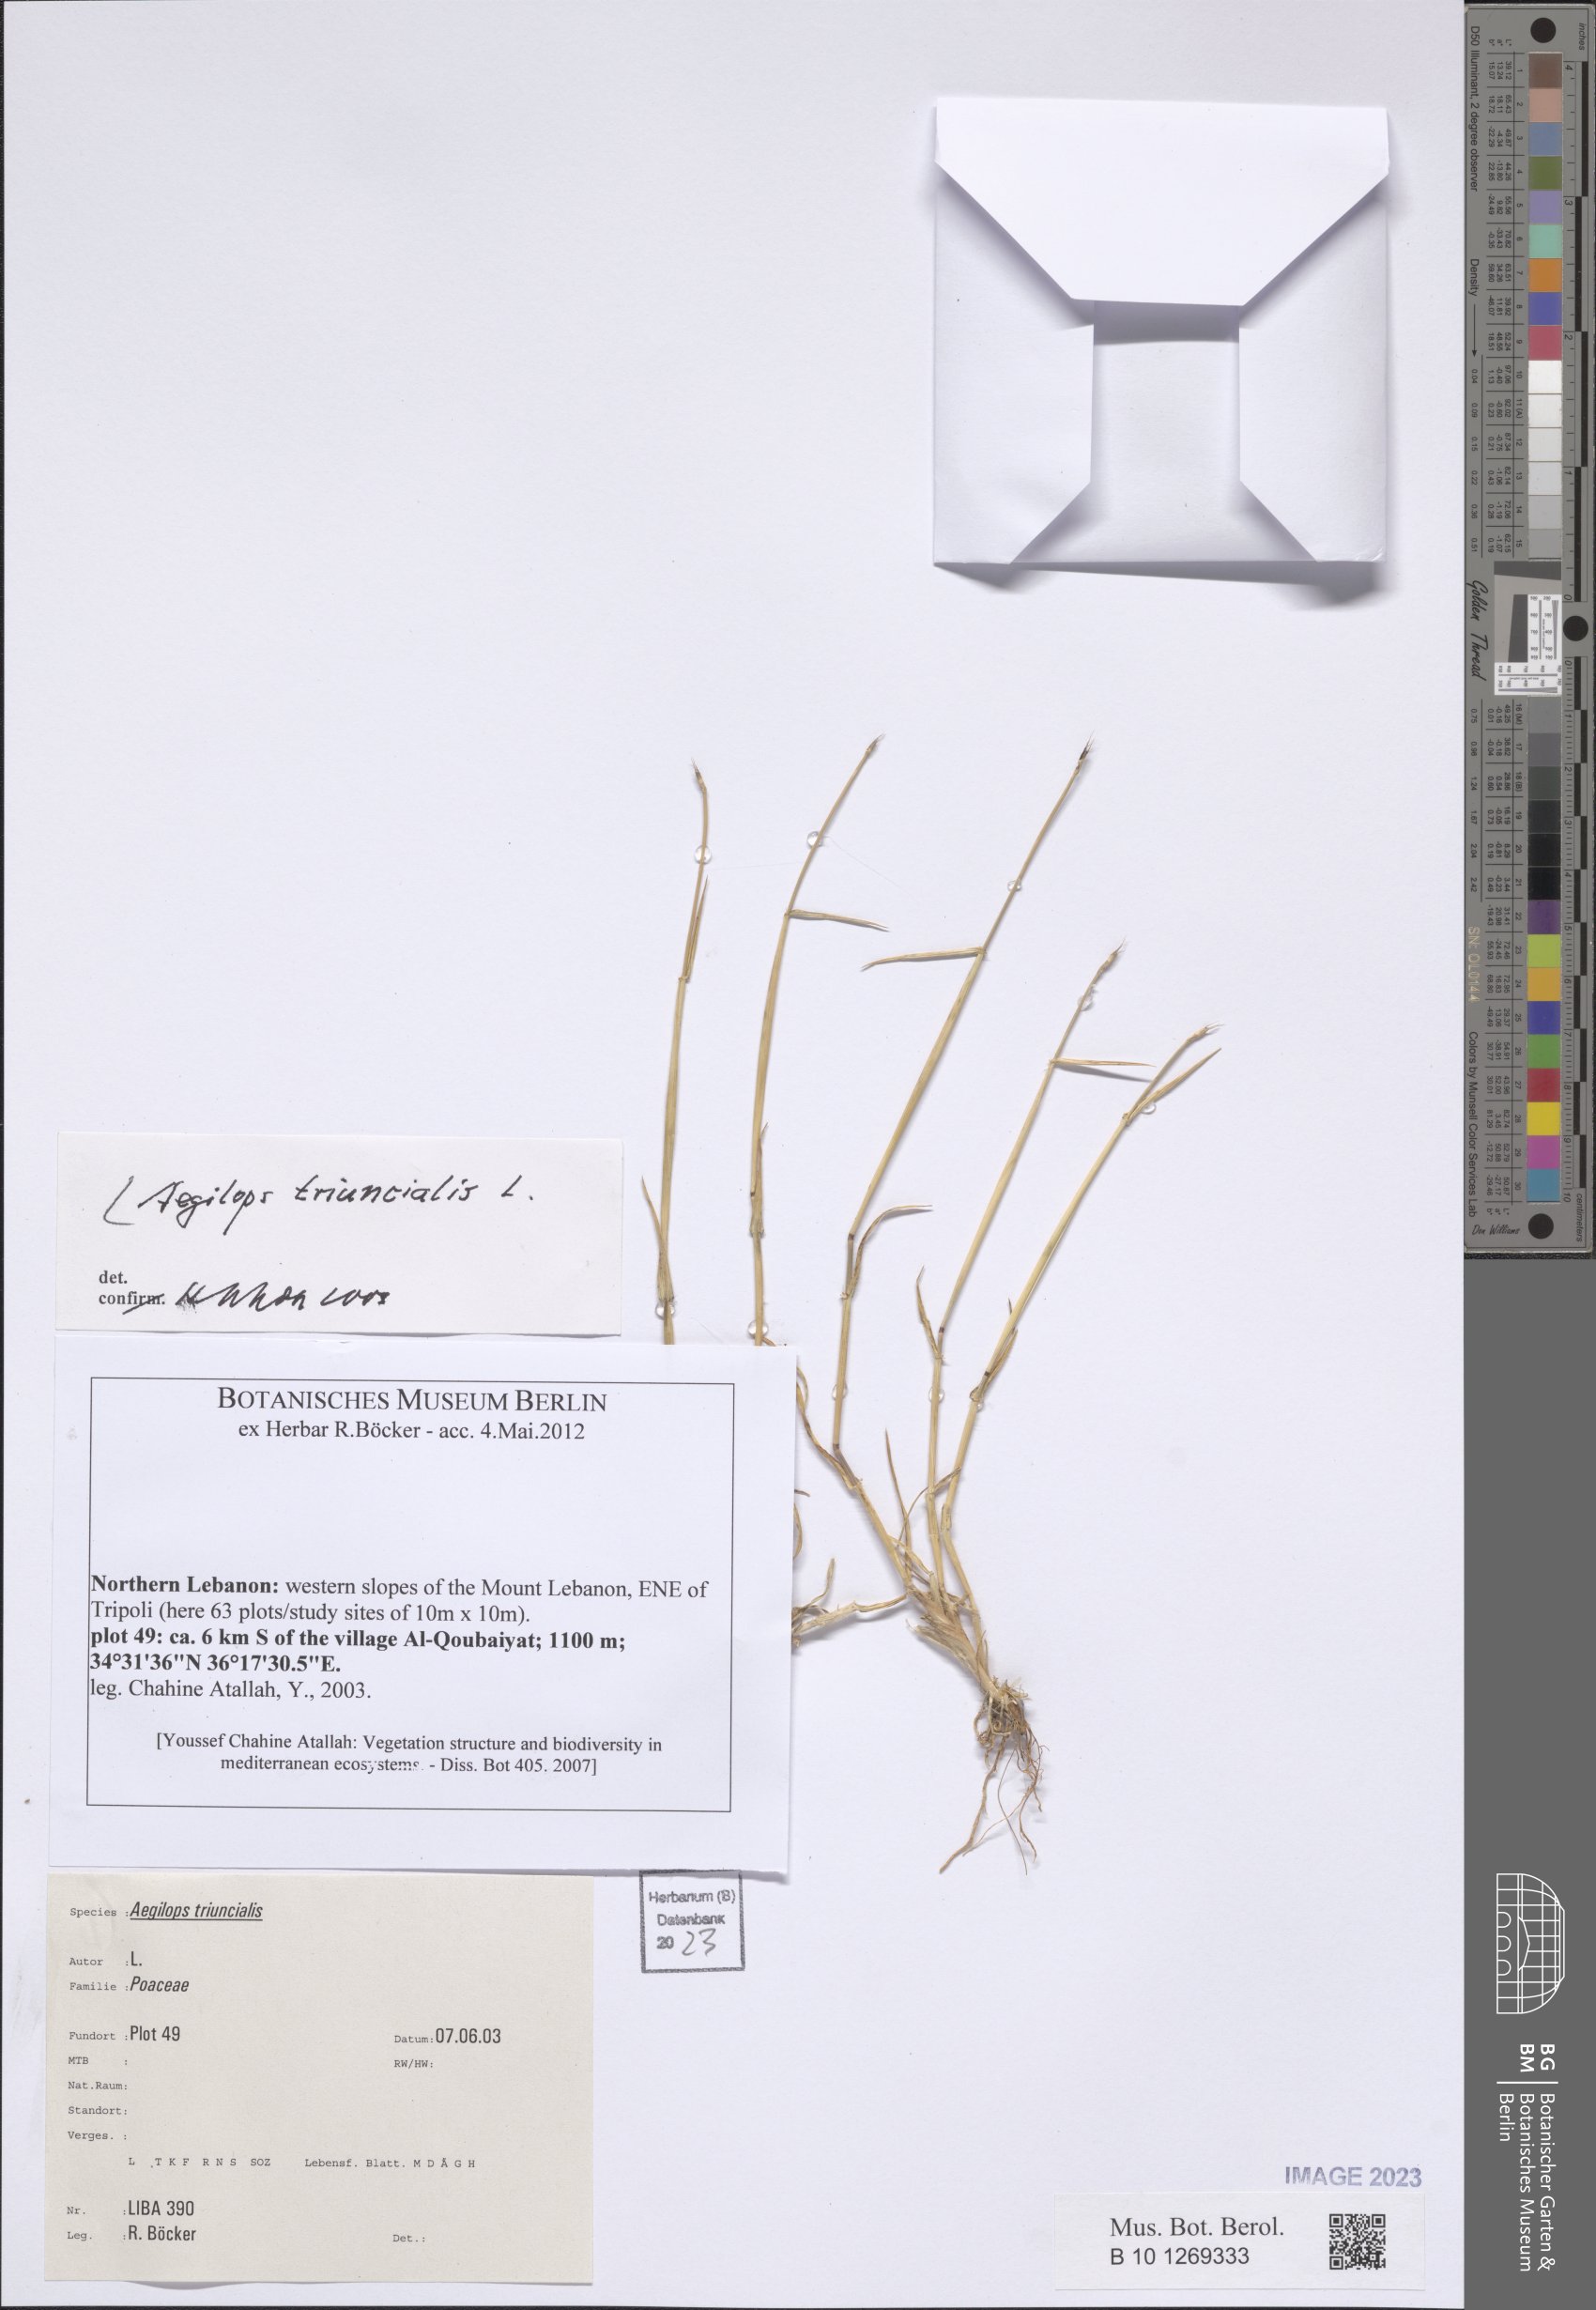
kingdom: Plantae
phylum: Tracheophyta
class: Liliopsida
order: Poales
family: Poaceae
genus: Aegilops
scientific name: Aegilops triuncialis
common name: Barb goat grass
